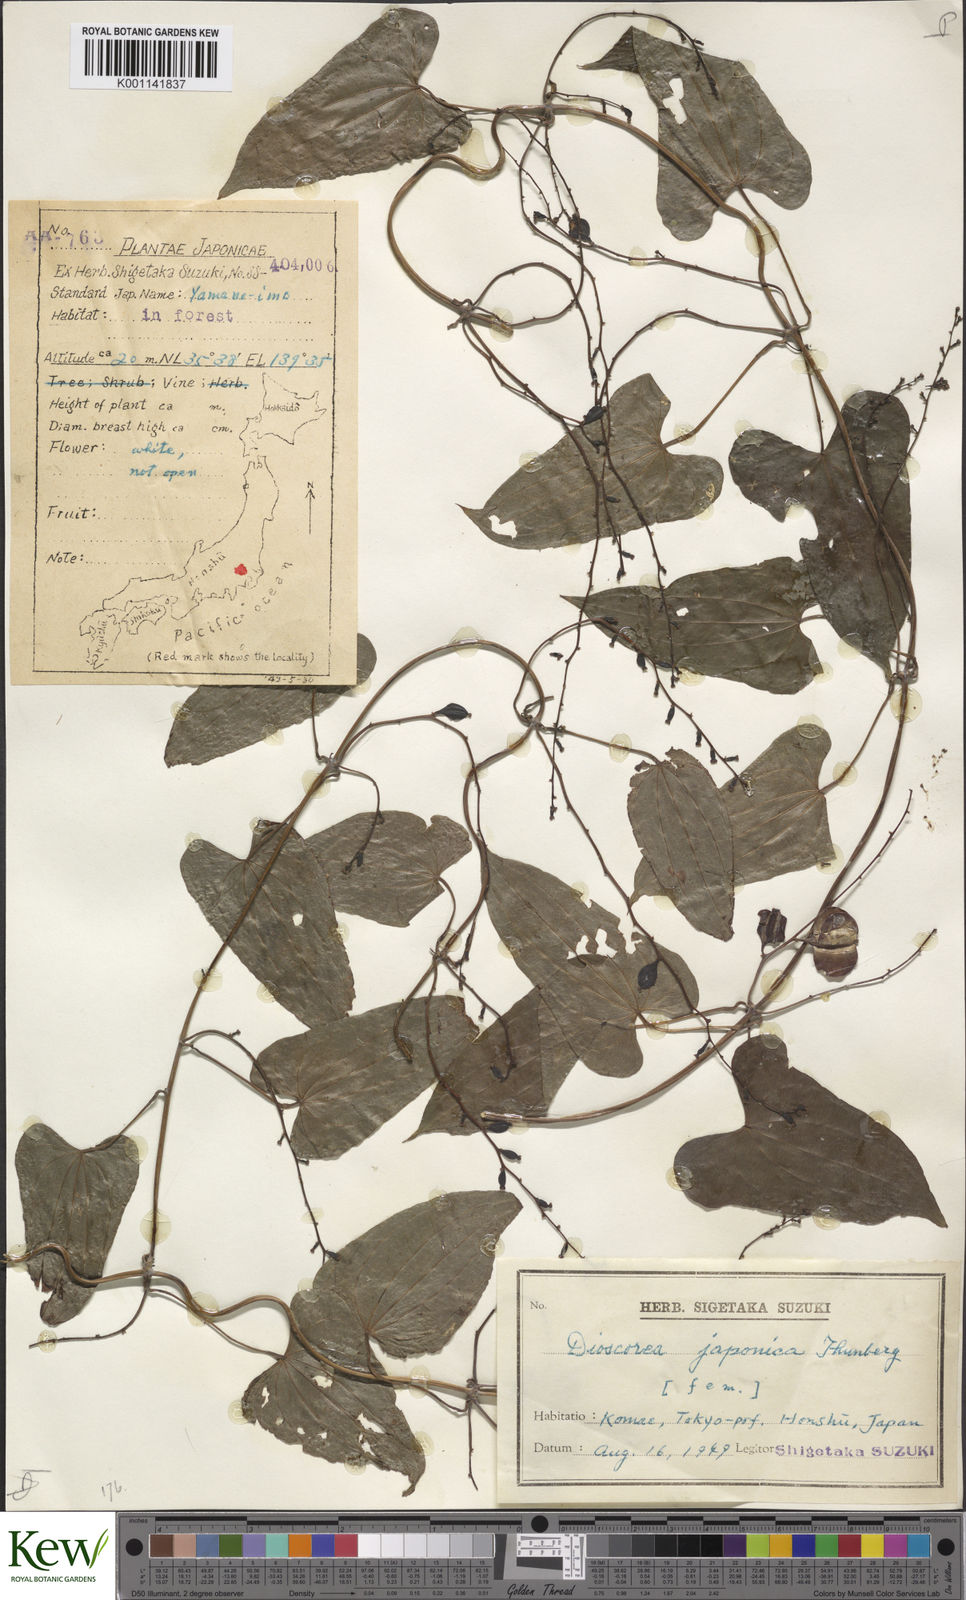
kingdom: Plantae
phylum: Tracheophyta
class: Liliopsida
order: Dioscoreales
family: Dioscoreaceae
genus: Dioscorea
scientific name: Dioscorea japonica
